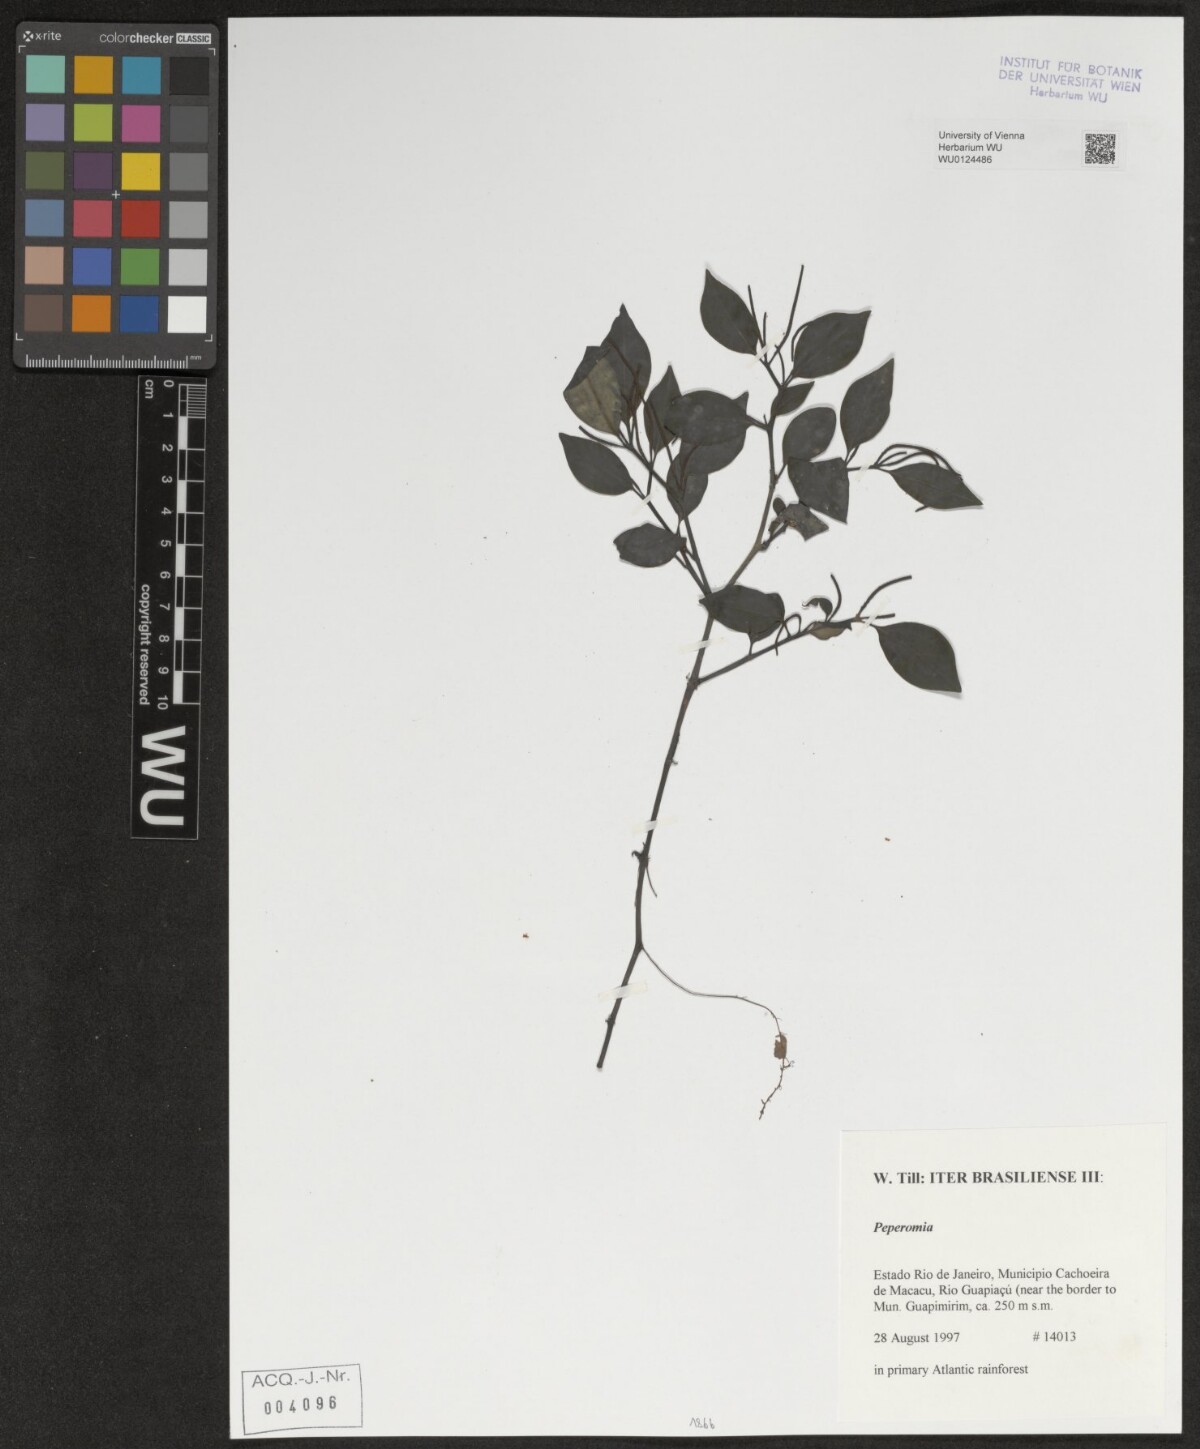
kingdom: Plantae
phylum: Tracheophyta
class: Magnoliopsida
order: Piperales
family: Piperaceae
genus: Peperomia
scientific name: Peperomia
